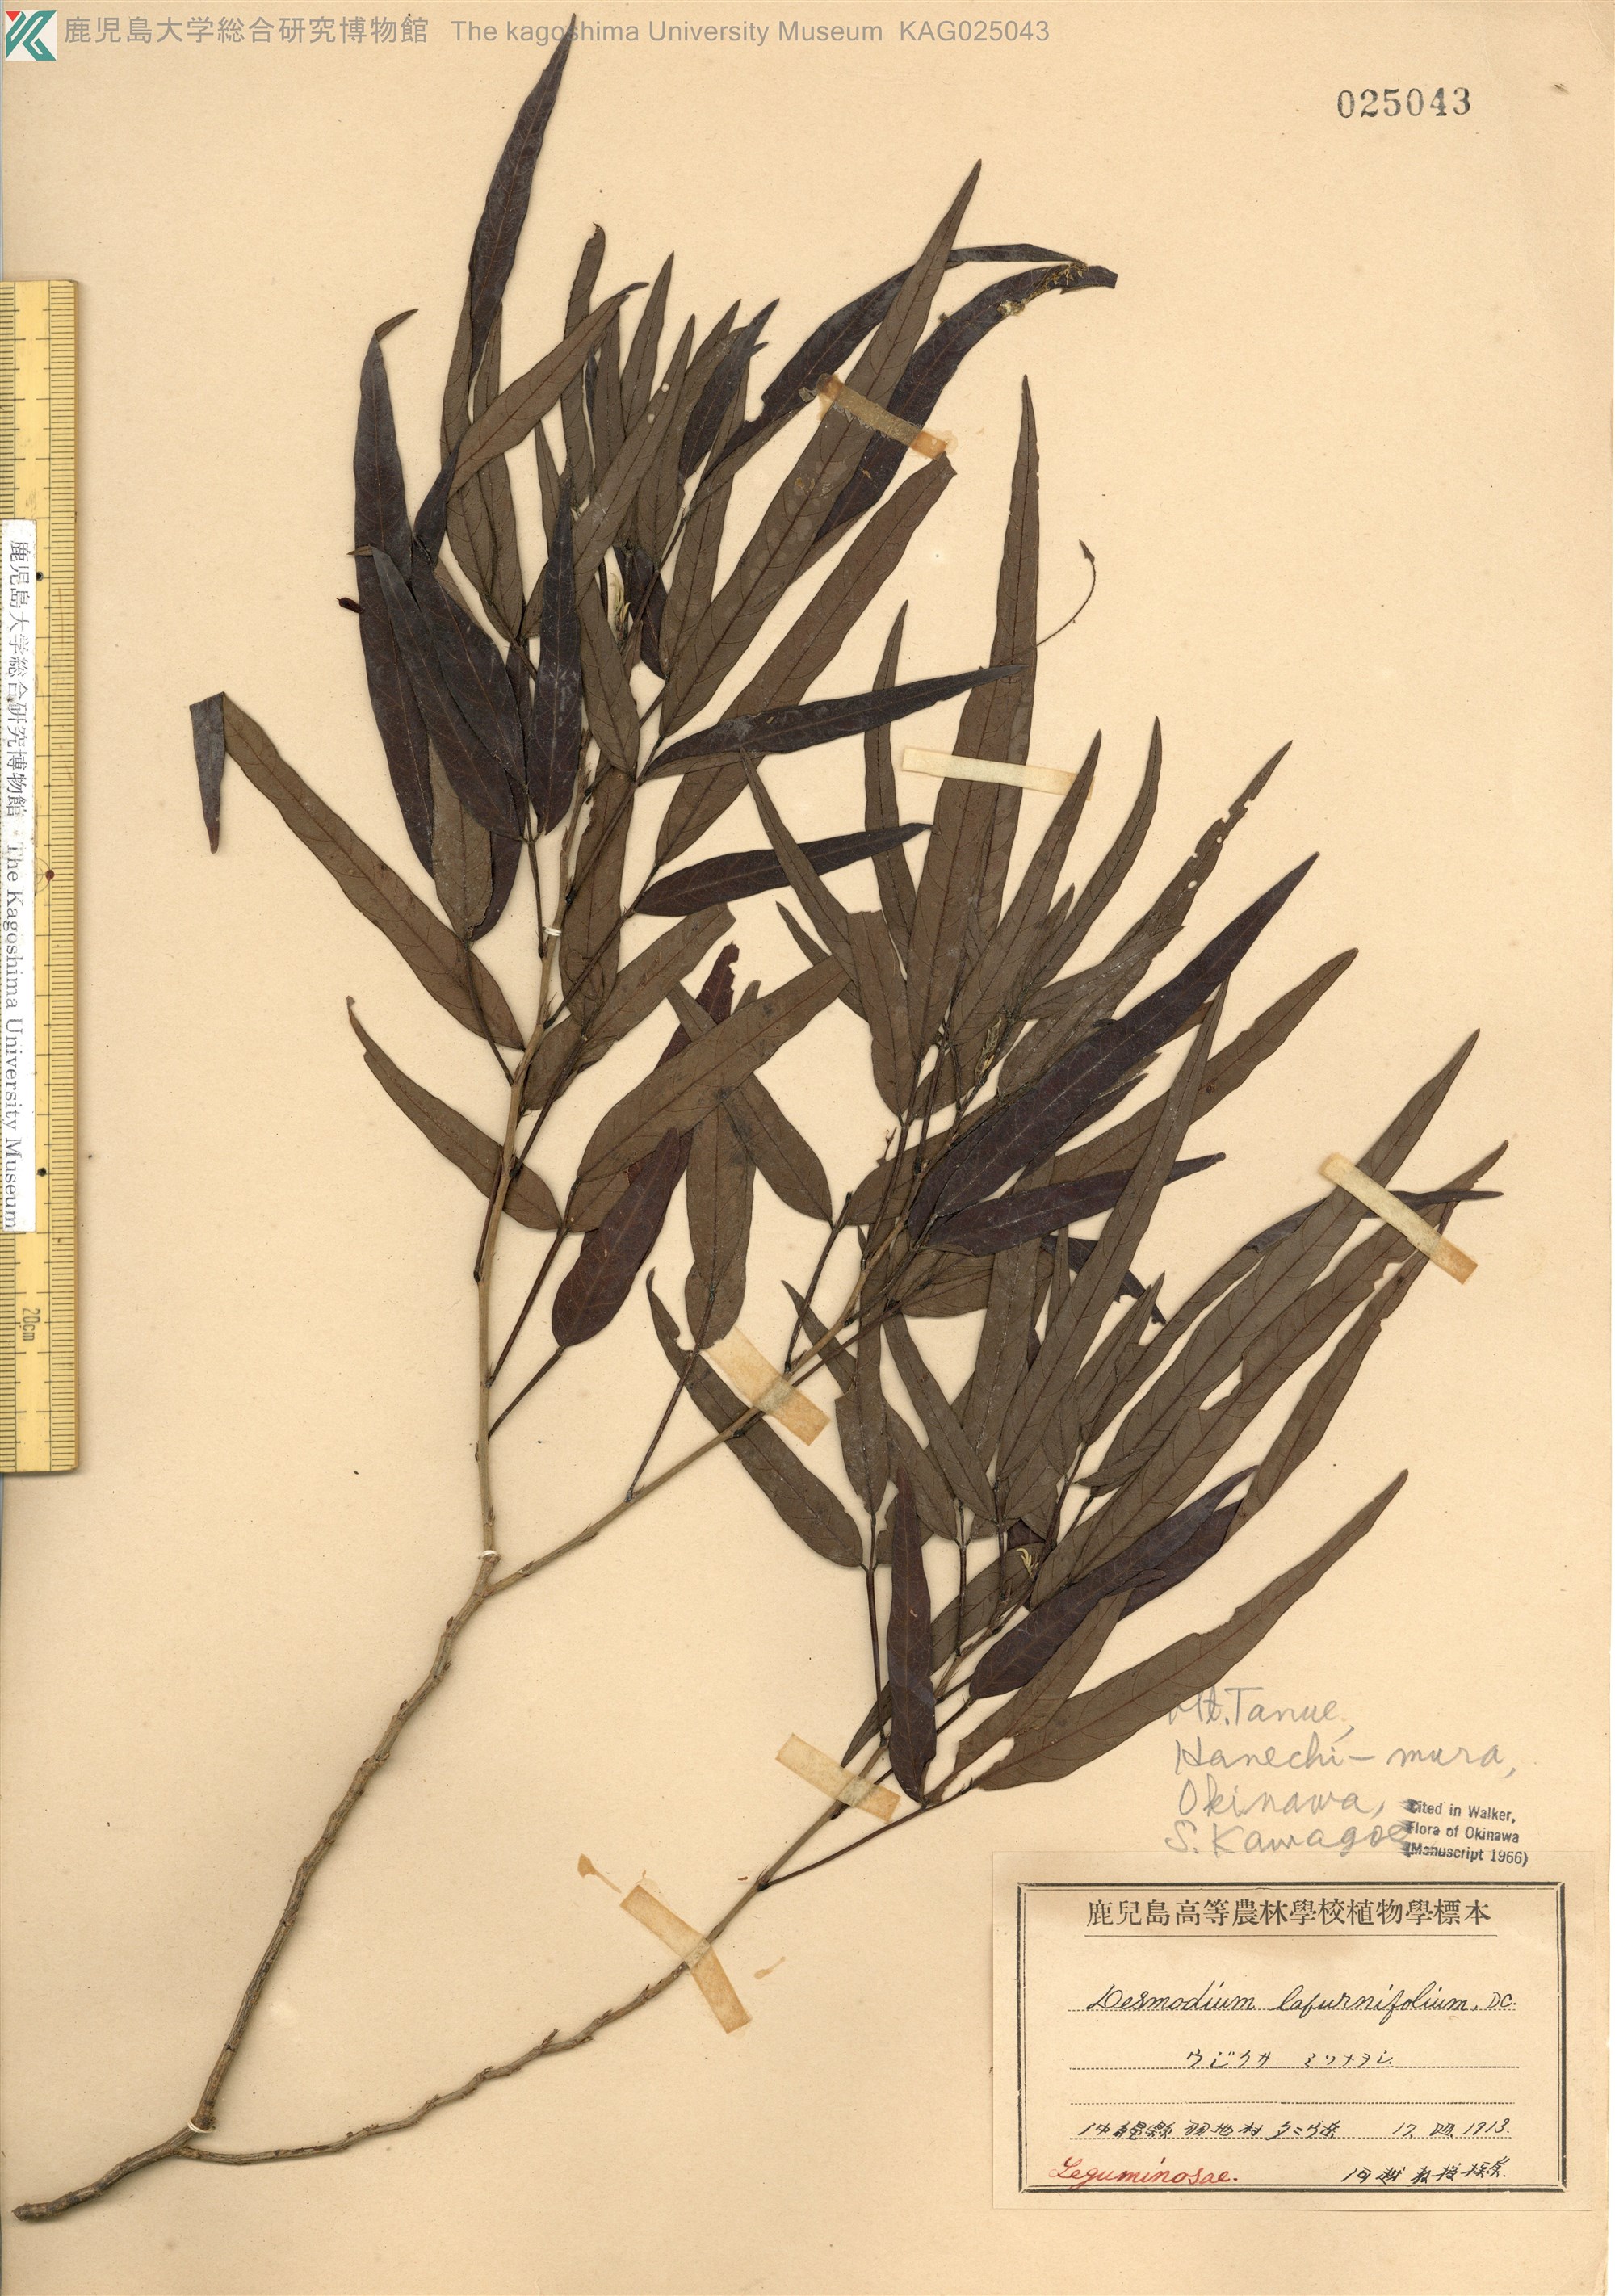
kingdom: Plantae
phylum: Tracheophyta
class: Magnoliopsida
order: Fabales
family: Fabaceae
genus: Ohwia
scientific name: Ohwia caudata
